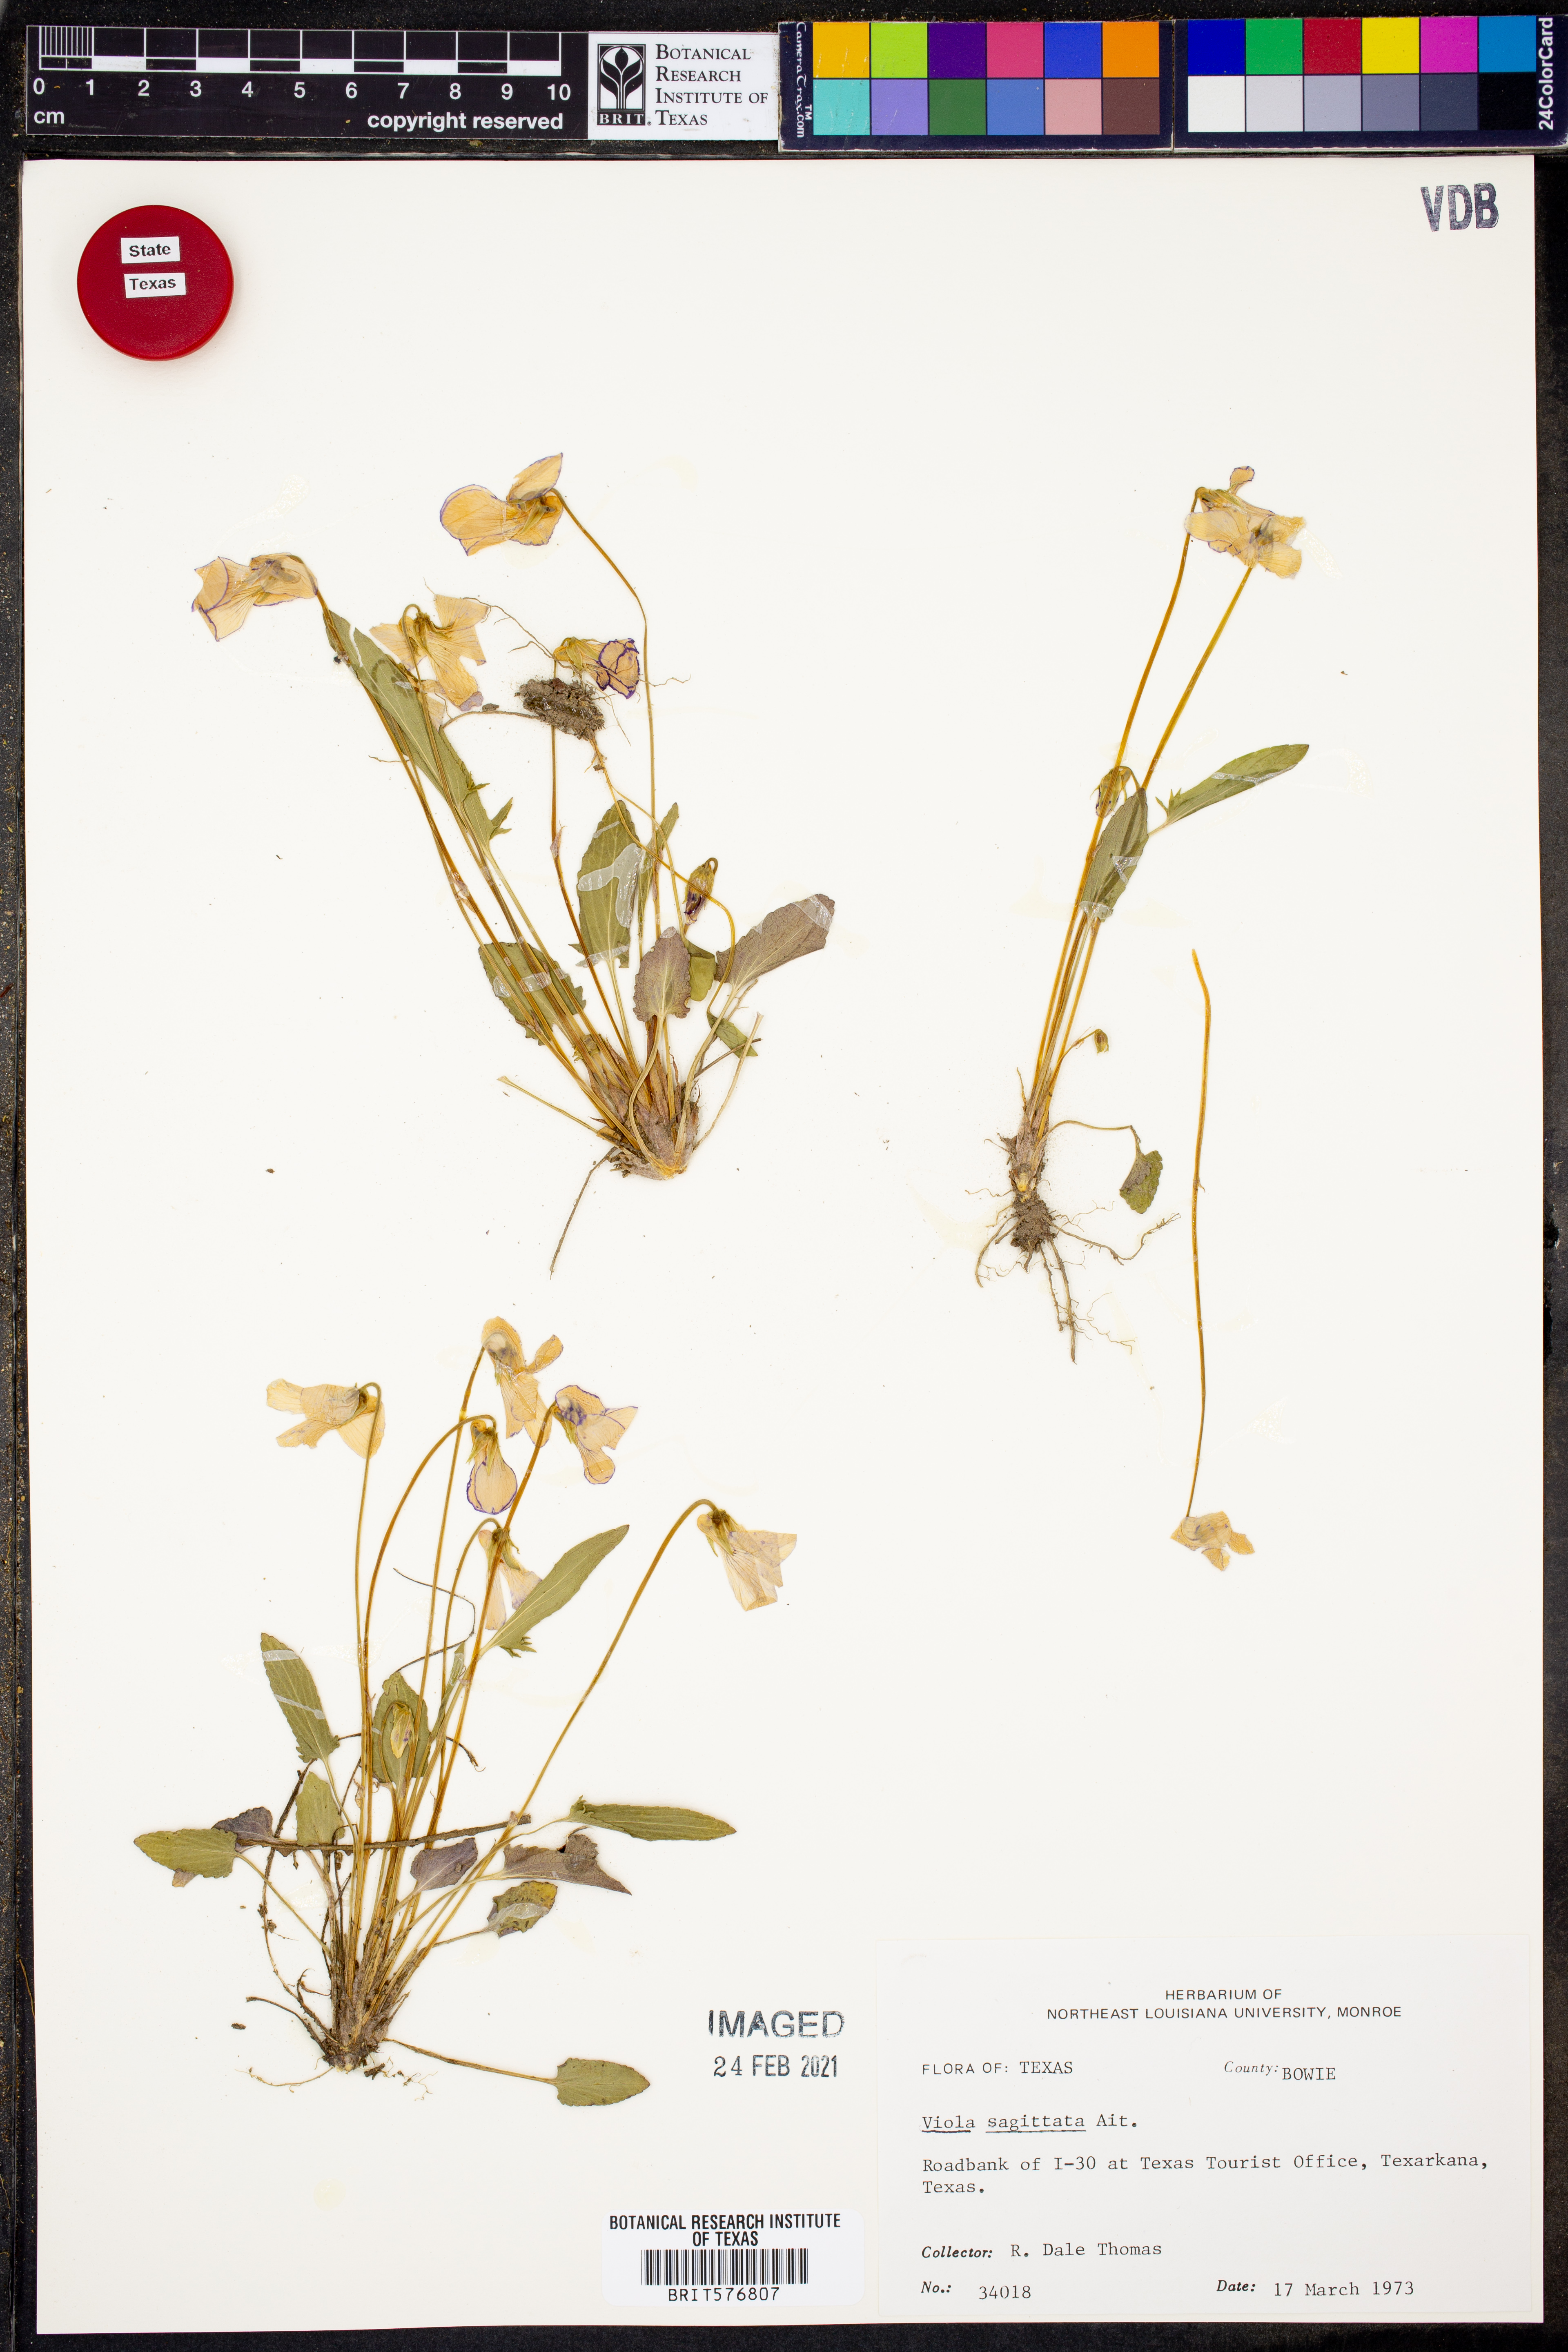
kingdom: Plantae
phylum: Tracheophyta
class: Magnoliopsida
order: Malpighiales
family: Violaceae
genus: Viola
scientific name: Viola sagittata
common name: Arrowhead violet
